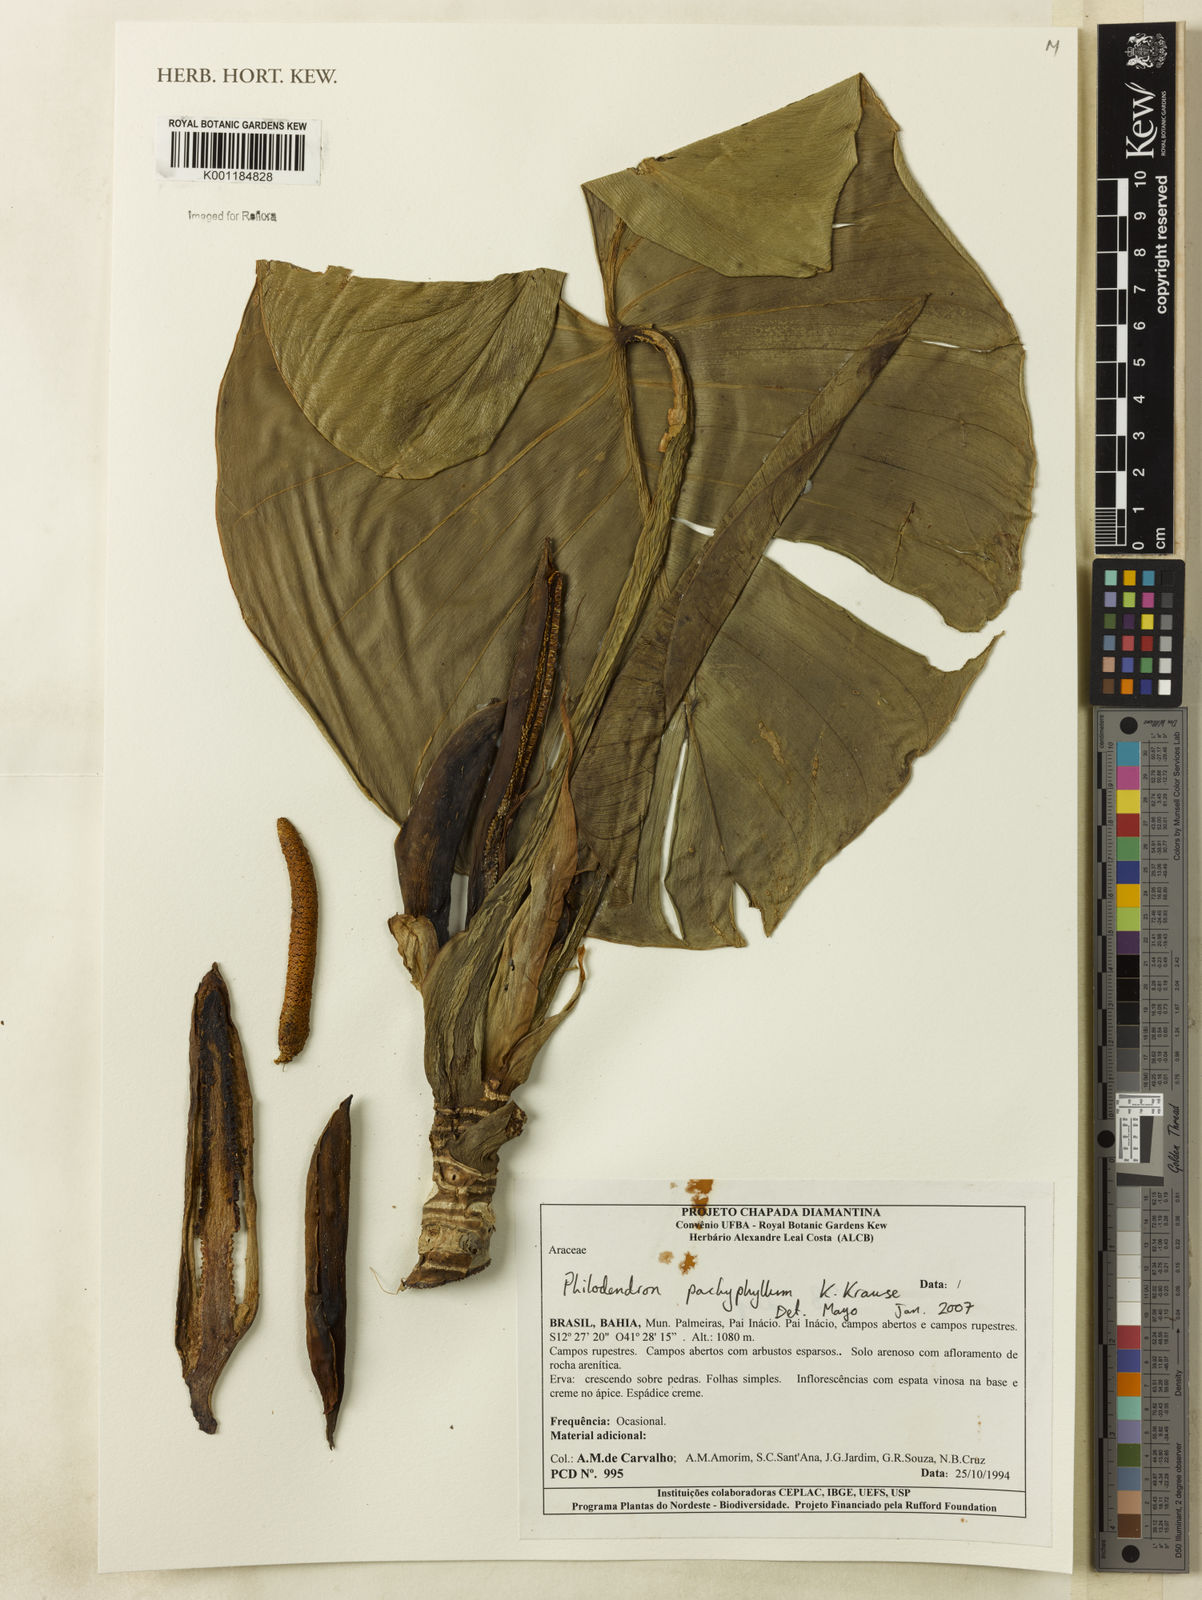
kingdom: Plantae
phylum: Tracheophyta
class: Liliopsida
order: Alismatales
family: Araceae
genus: Philodendron
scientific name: Philodendron pachyphyllum
